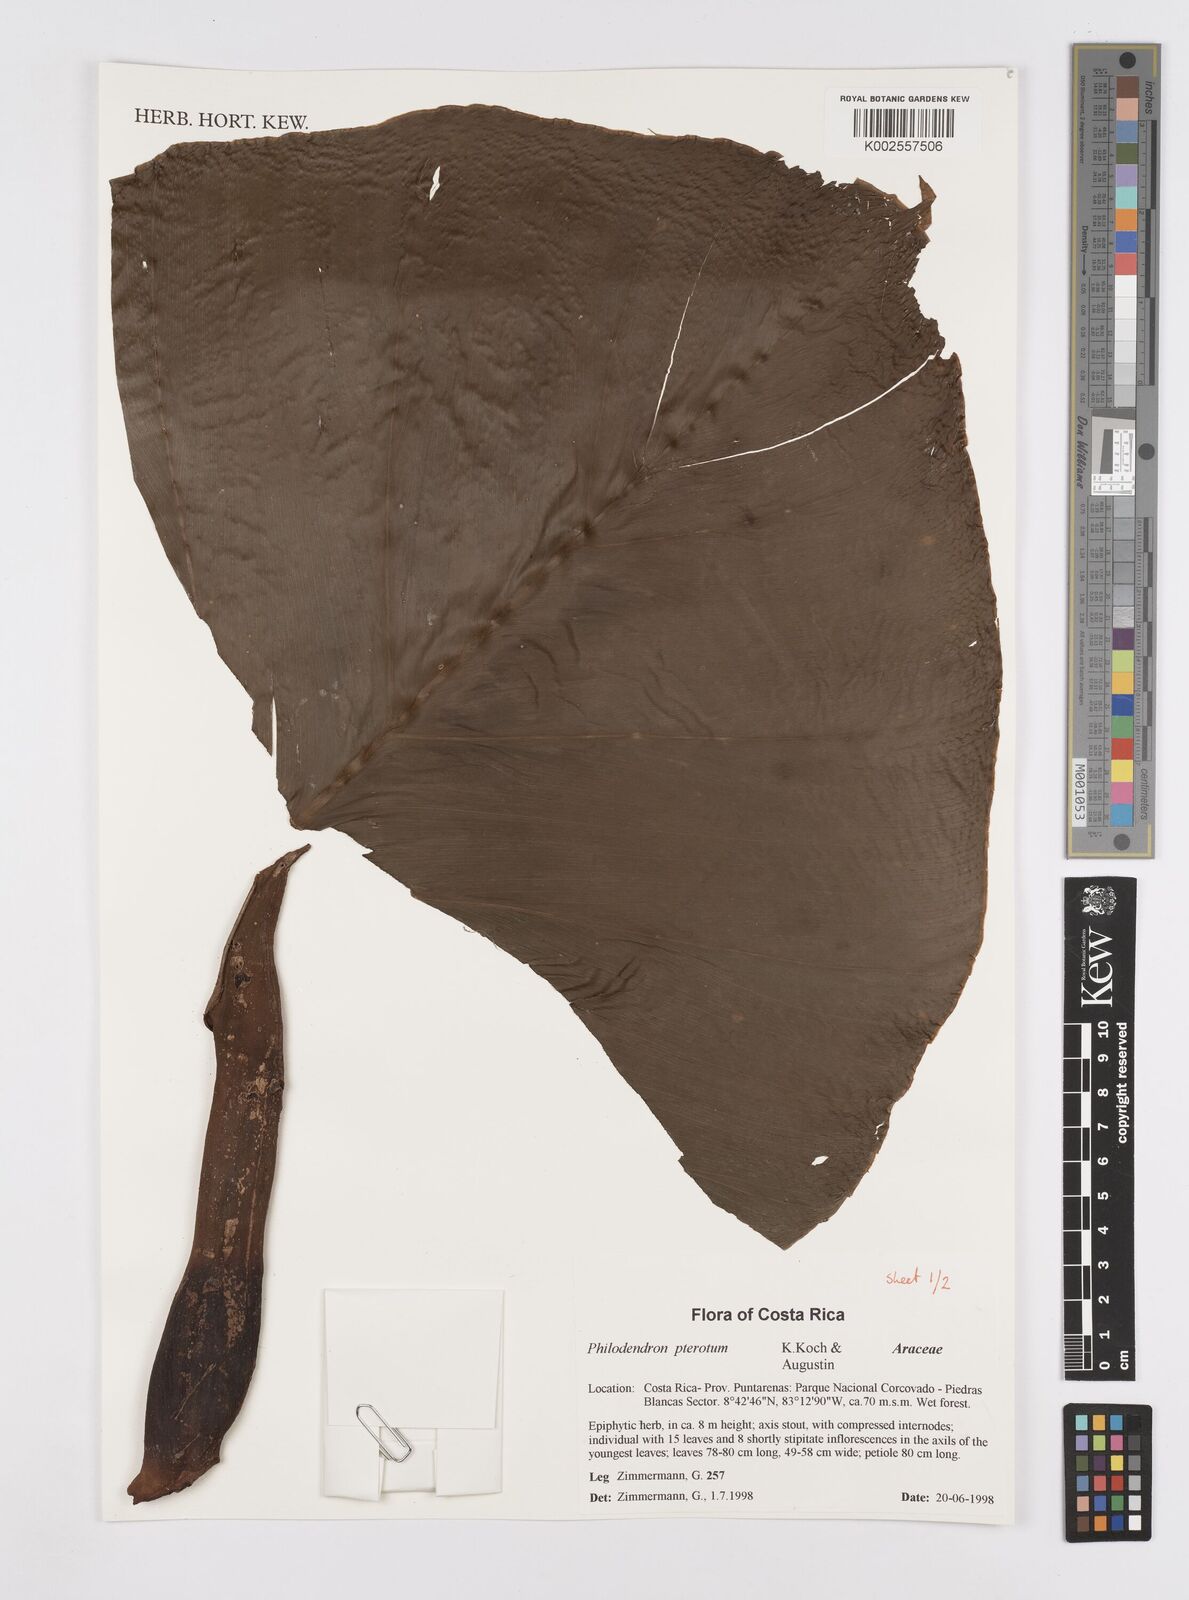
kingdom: Plantae
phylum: Tracheophyta
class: Liliopsida
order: Alismatales
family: Araceae
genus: Philodendron
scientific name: Philodendron pterotum
